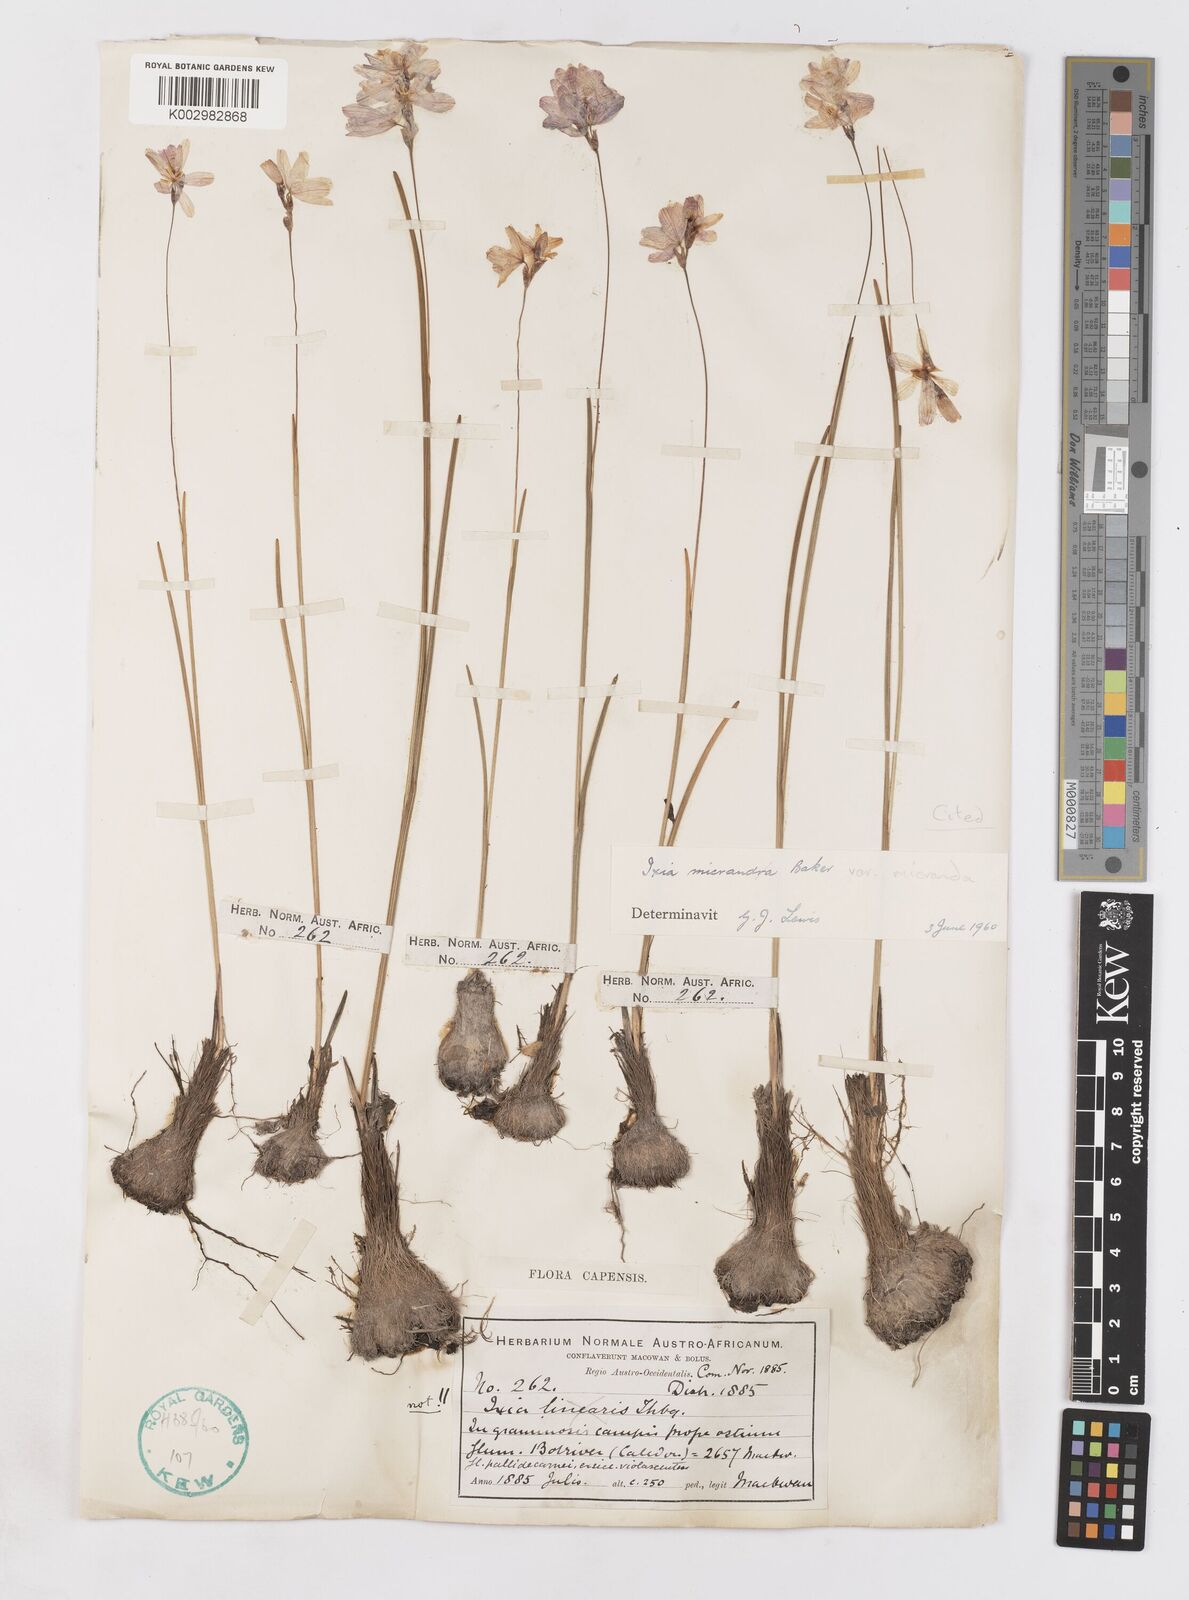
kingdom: Plantae
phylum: Tracheophyta
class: Liliopsida
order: Asparagales
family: Iridaceae
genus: Ixia
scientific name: Ixia micrandra
